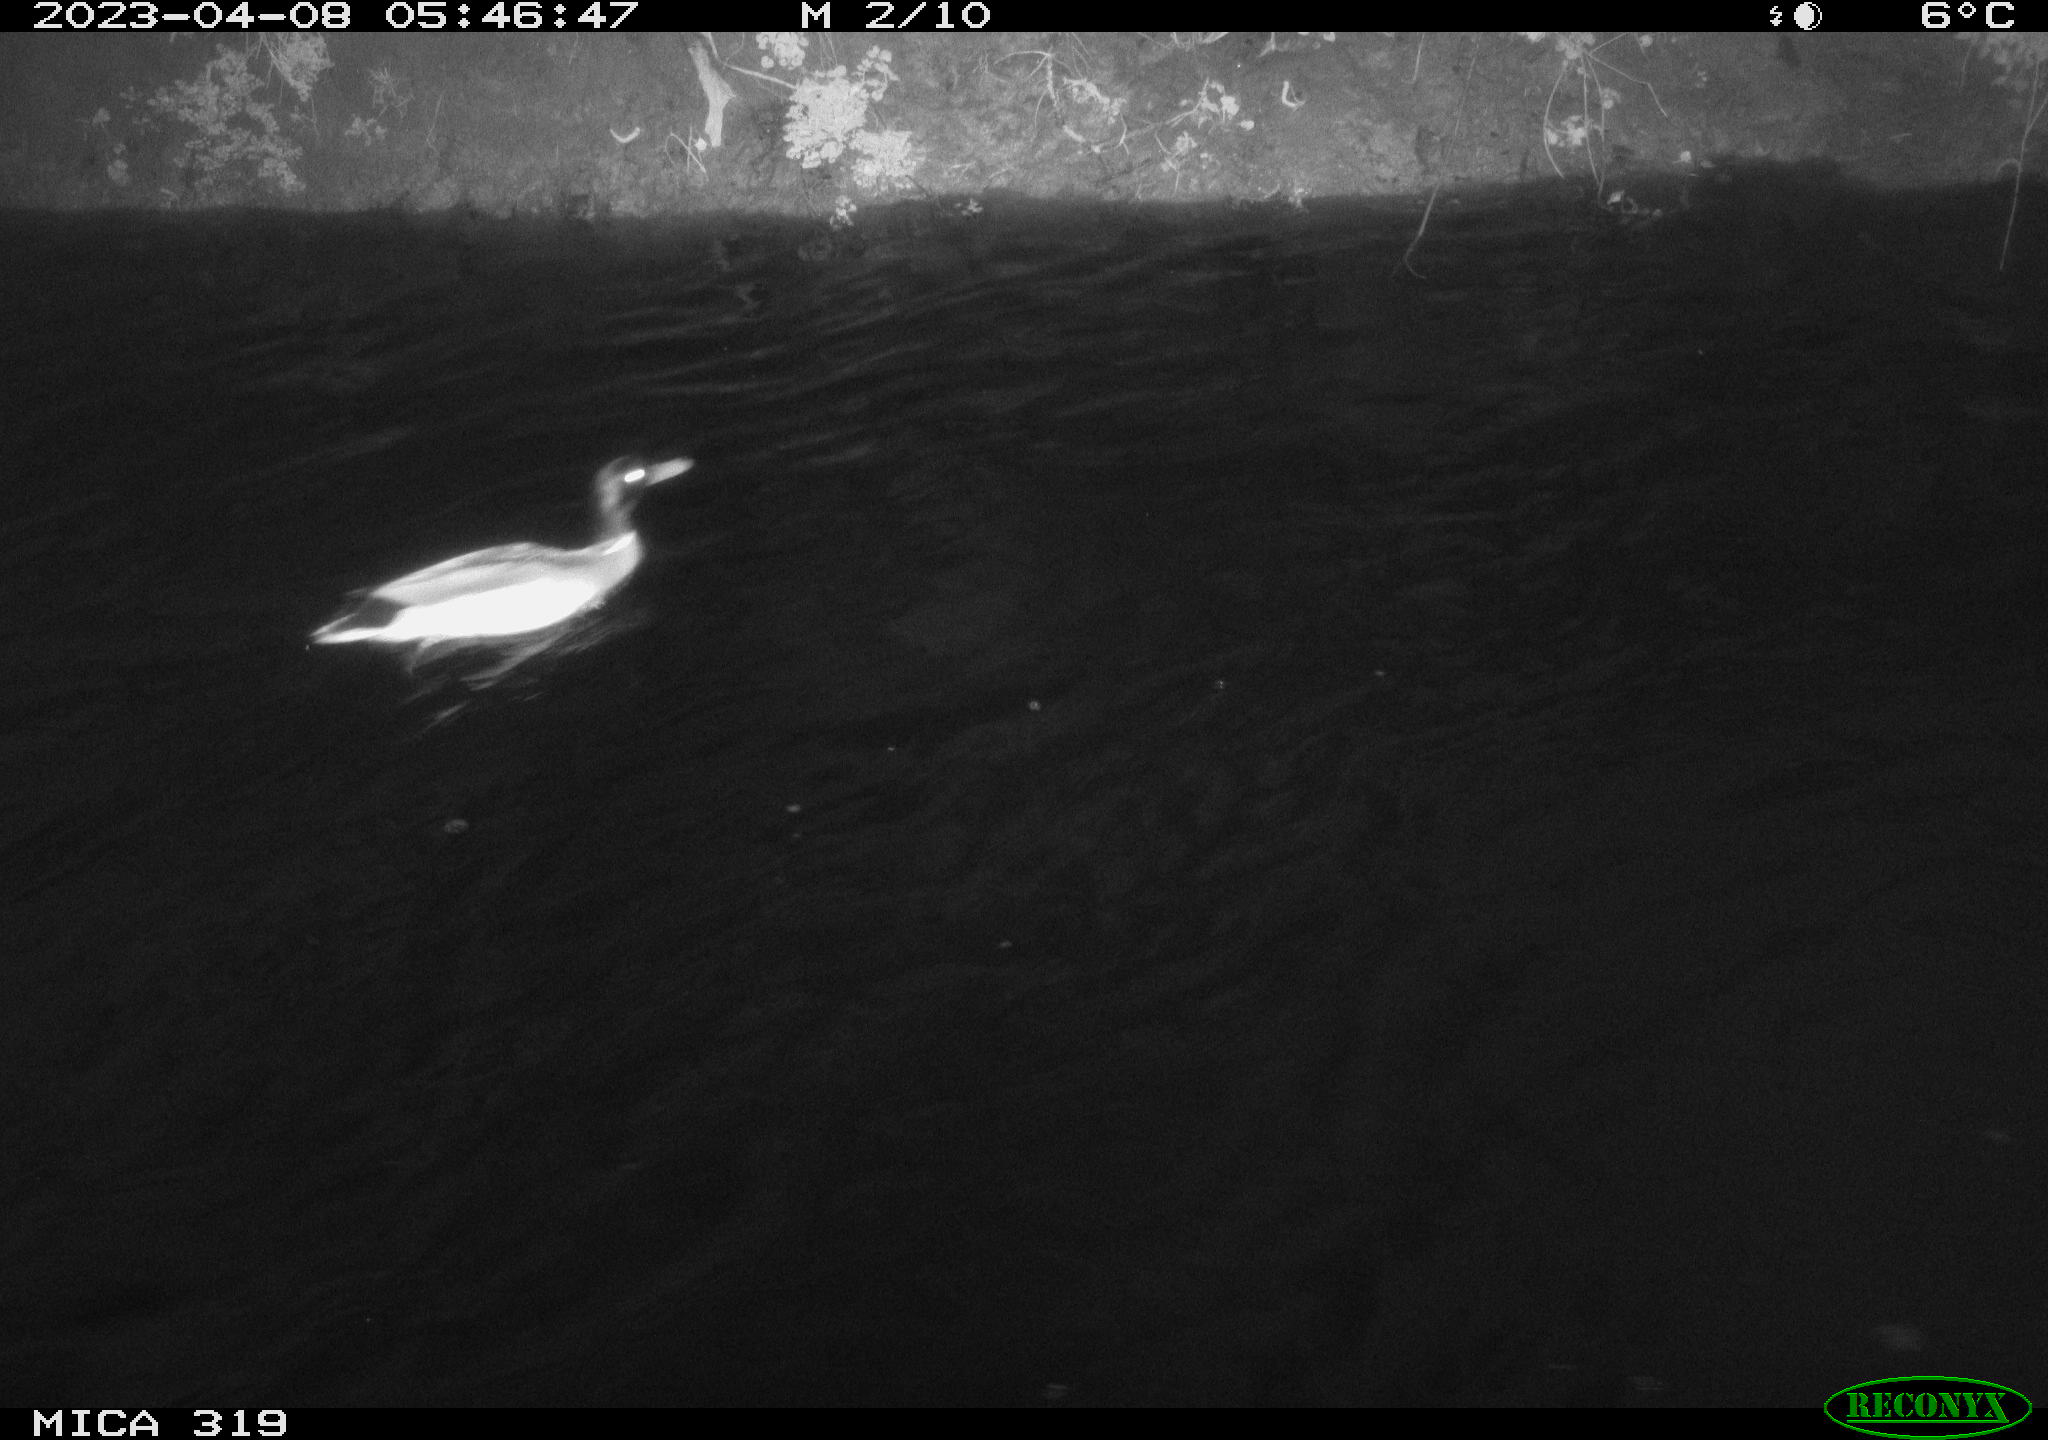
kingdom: Animalia
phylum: Chordata
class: Aves
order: Anseriformes
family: Anatidae
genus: Anas
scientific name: Anas
